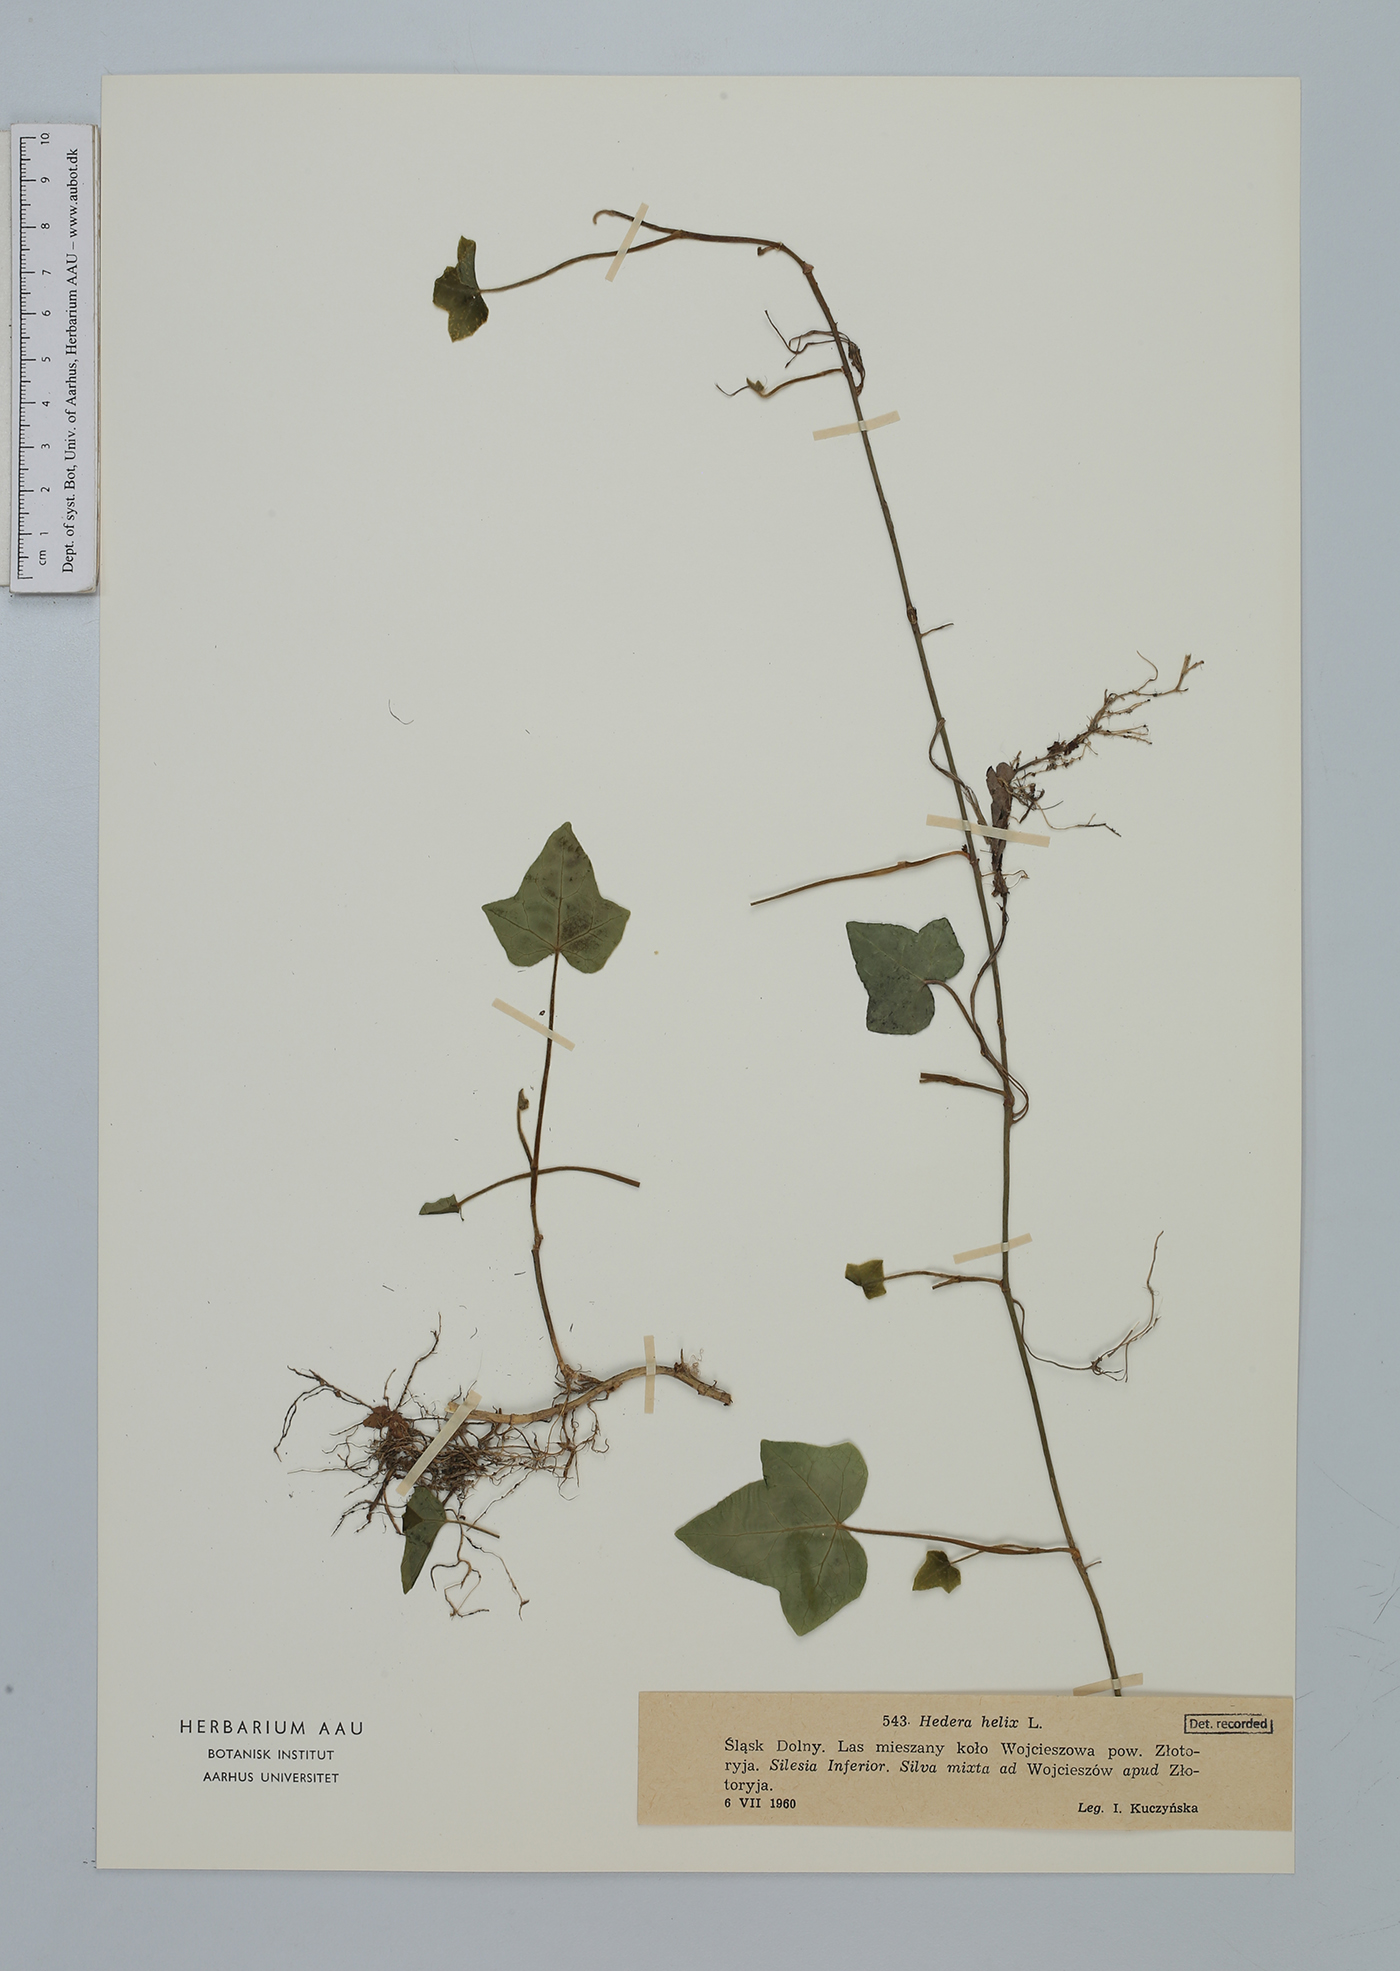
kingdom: Plantae
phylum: Tracheophyta
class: Magnoliopsida
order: Apiales
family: Araliaceae
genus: Hedera
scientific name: Hedera helix
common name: Ivy
